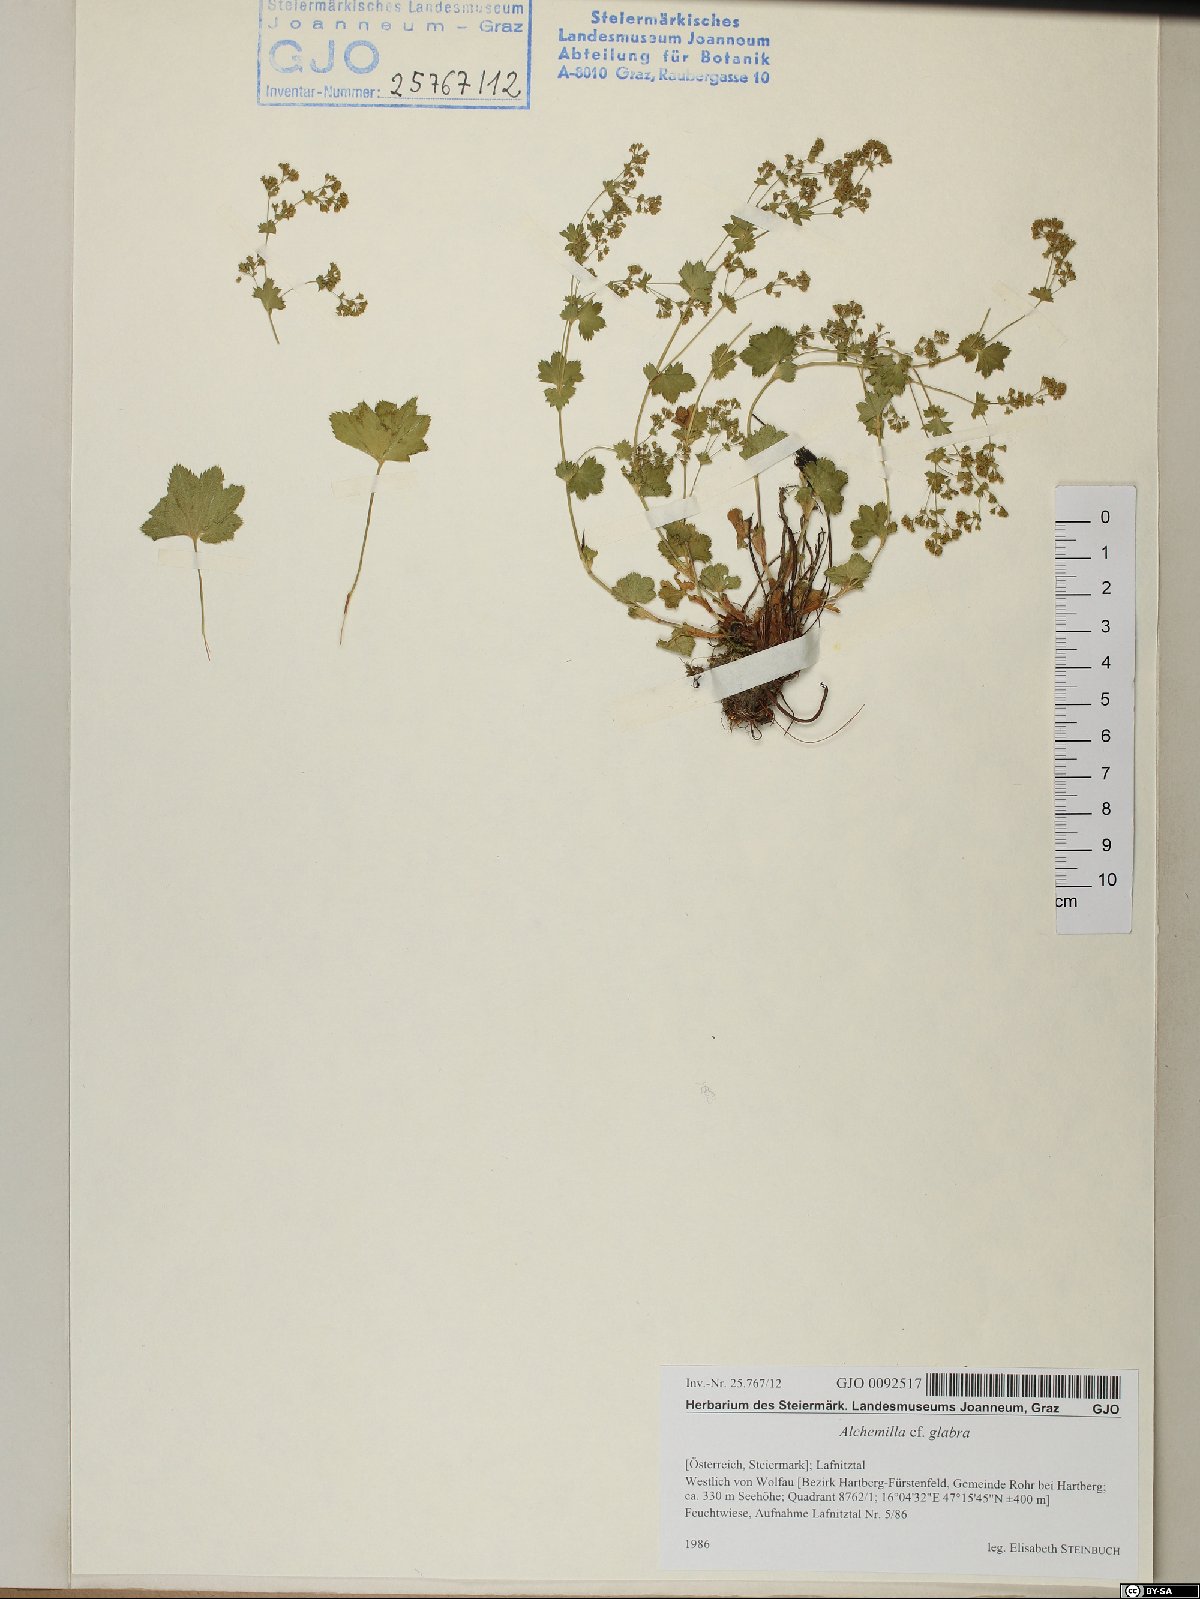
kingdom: Plantae
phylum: Tracheophyta
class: Magnoliopsida
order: Rosales
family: Rosaceae
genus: Alchemilla
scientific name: Alchemilla glabra
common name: Smooth lady's-mantle
